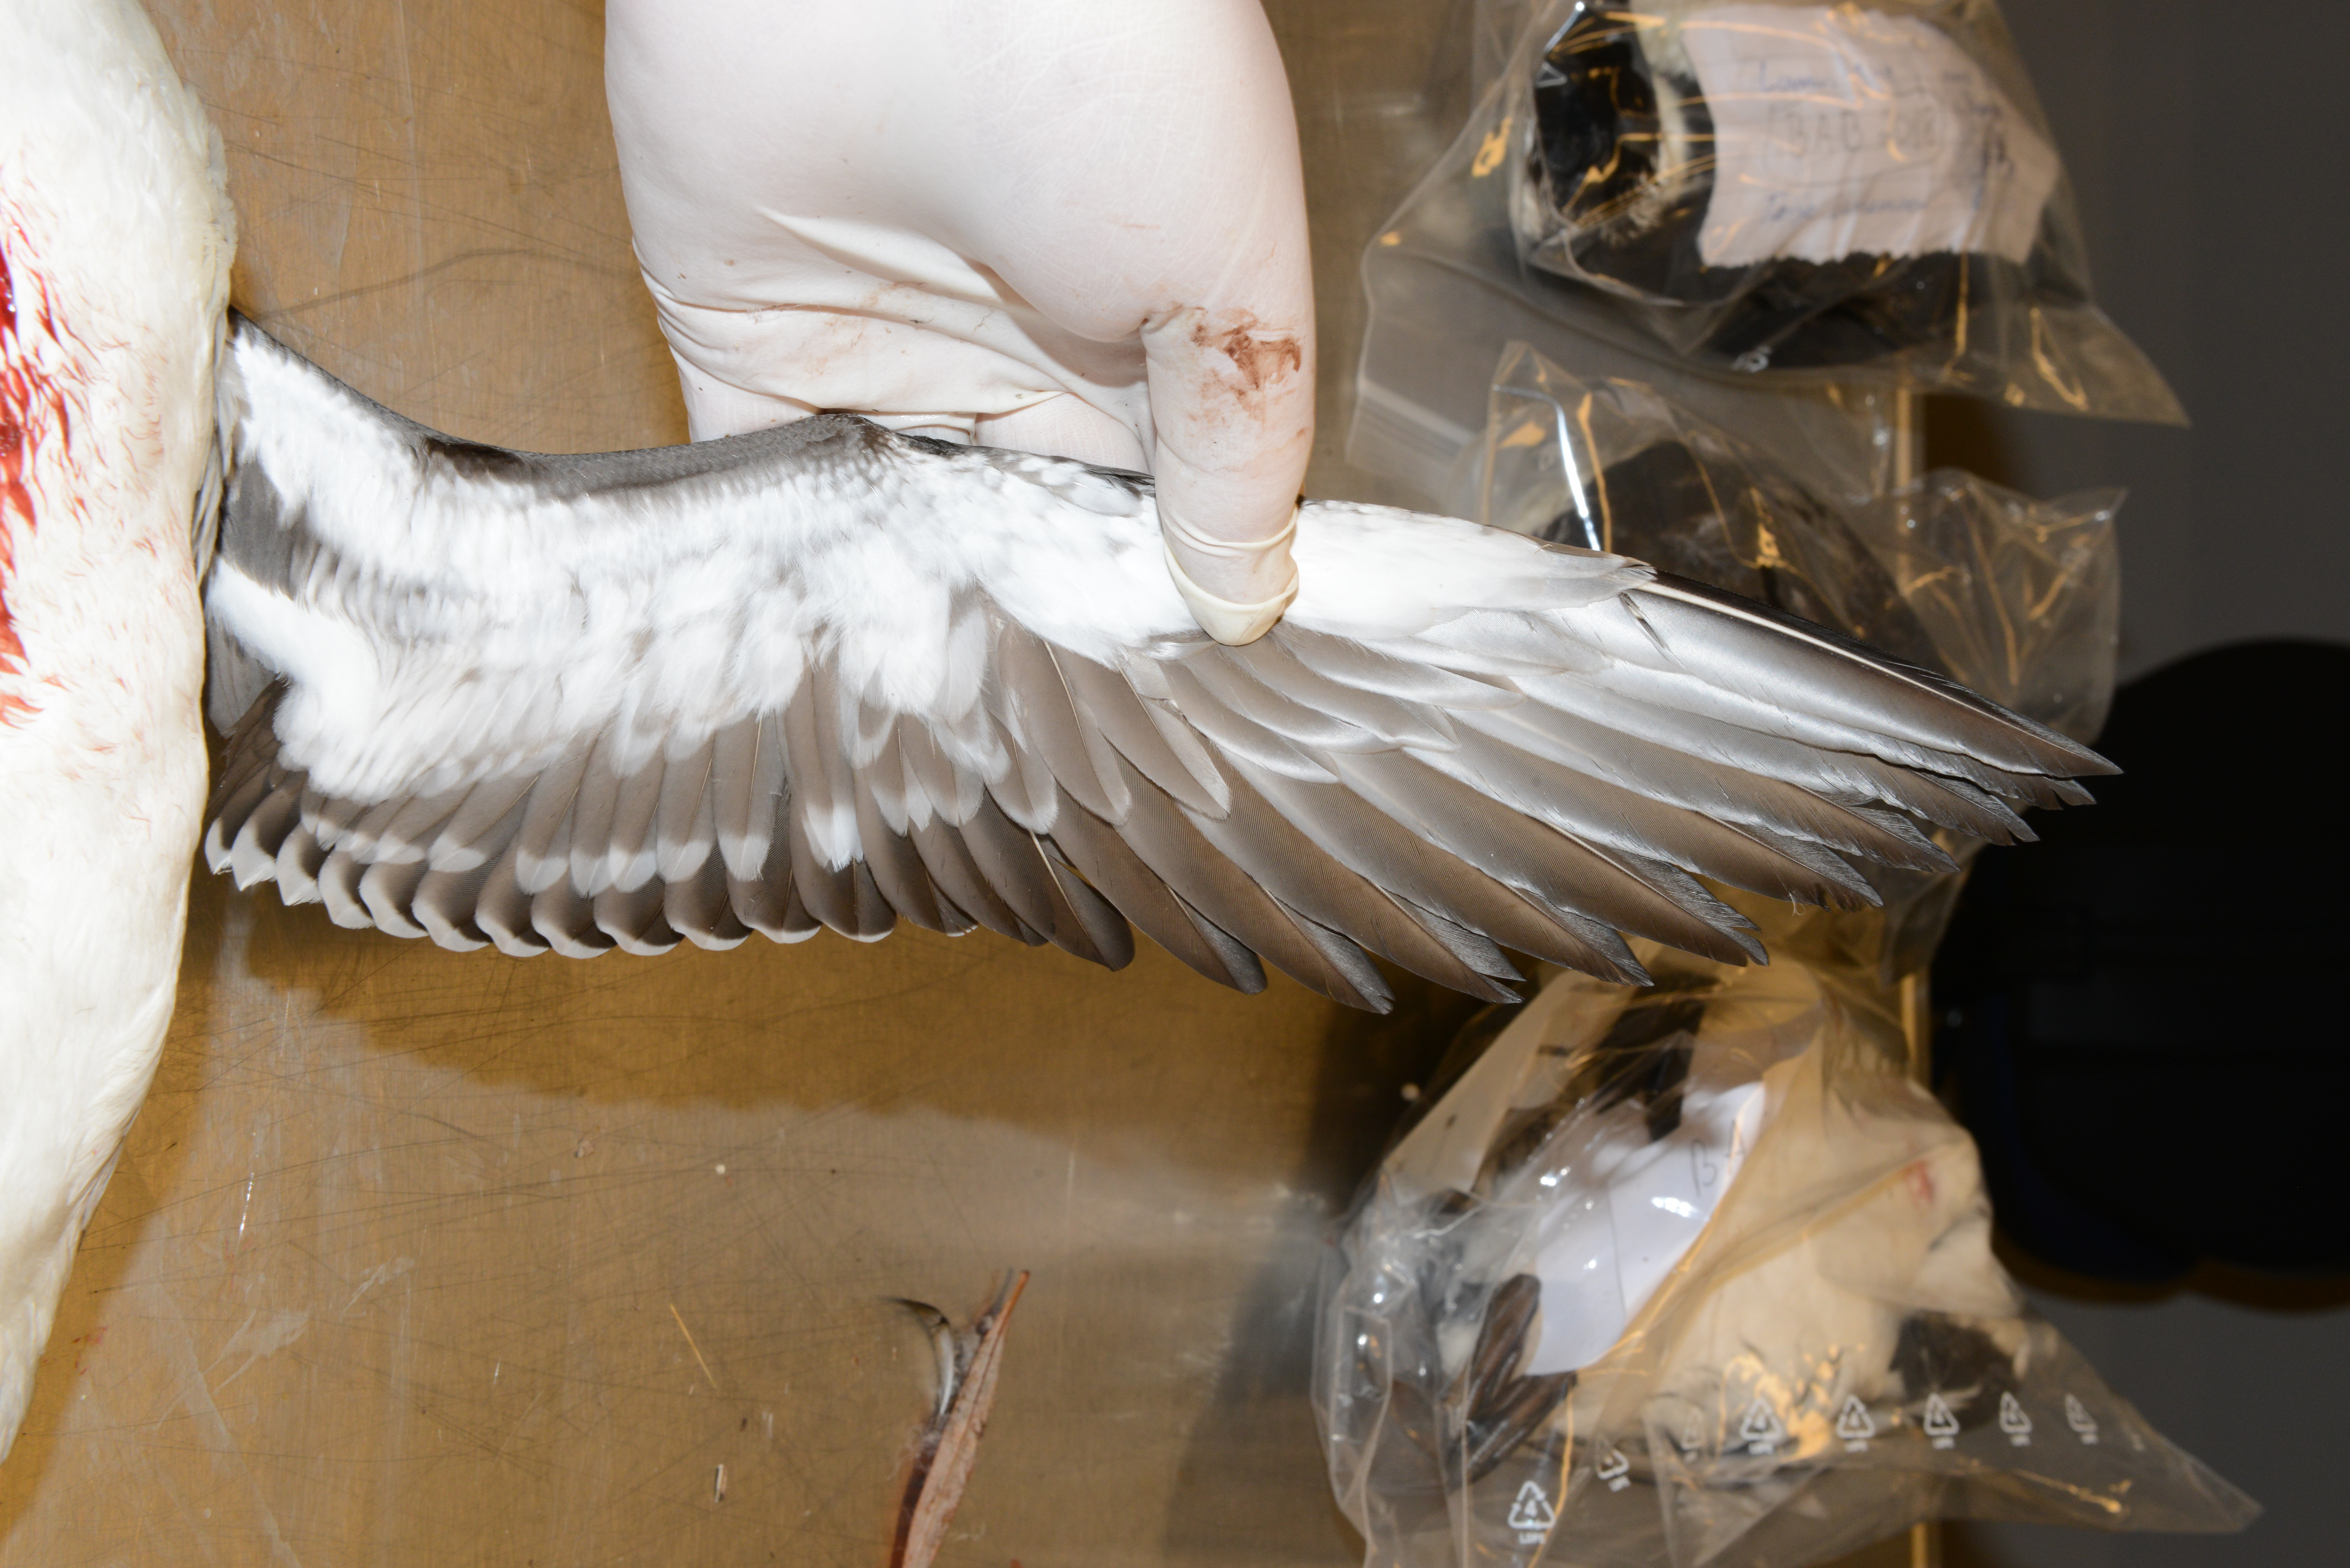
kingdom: Animalia
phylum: Chordata
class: Aves
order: Charadriiformes
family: Alcidae
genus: Uria
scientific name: Uria aalge
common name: Common murre
